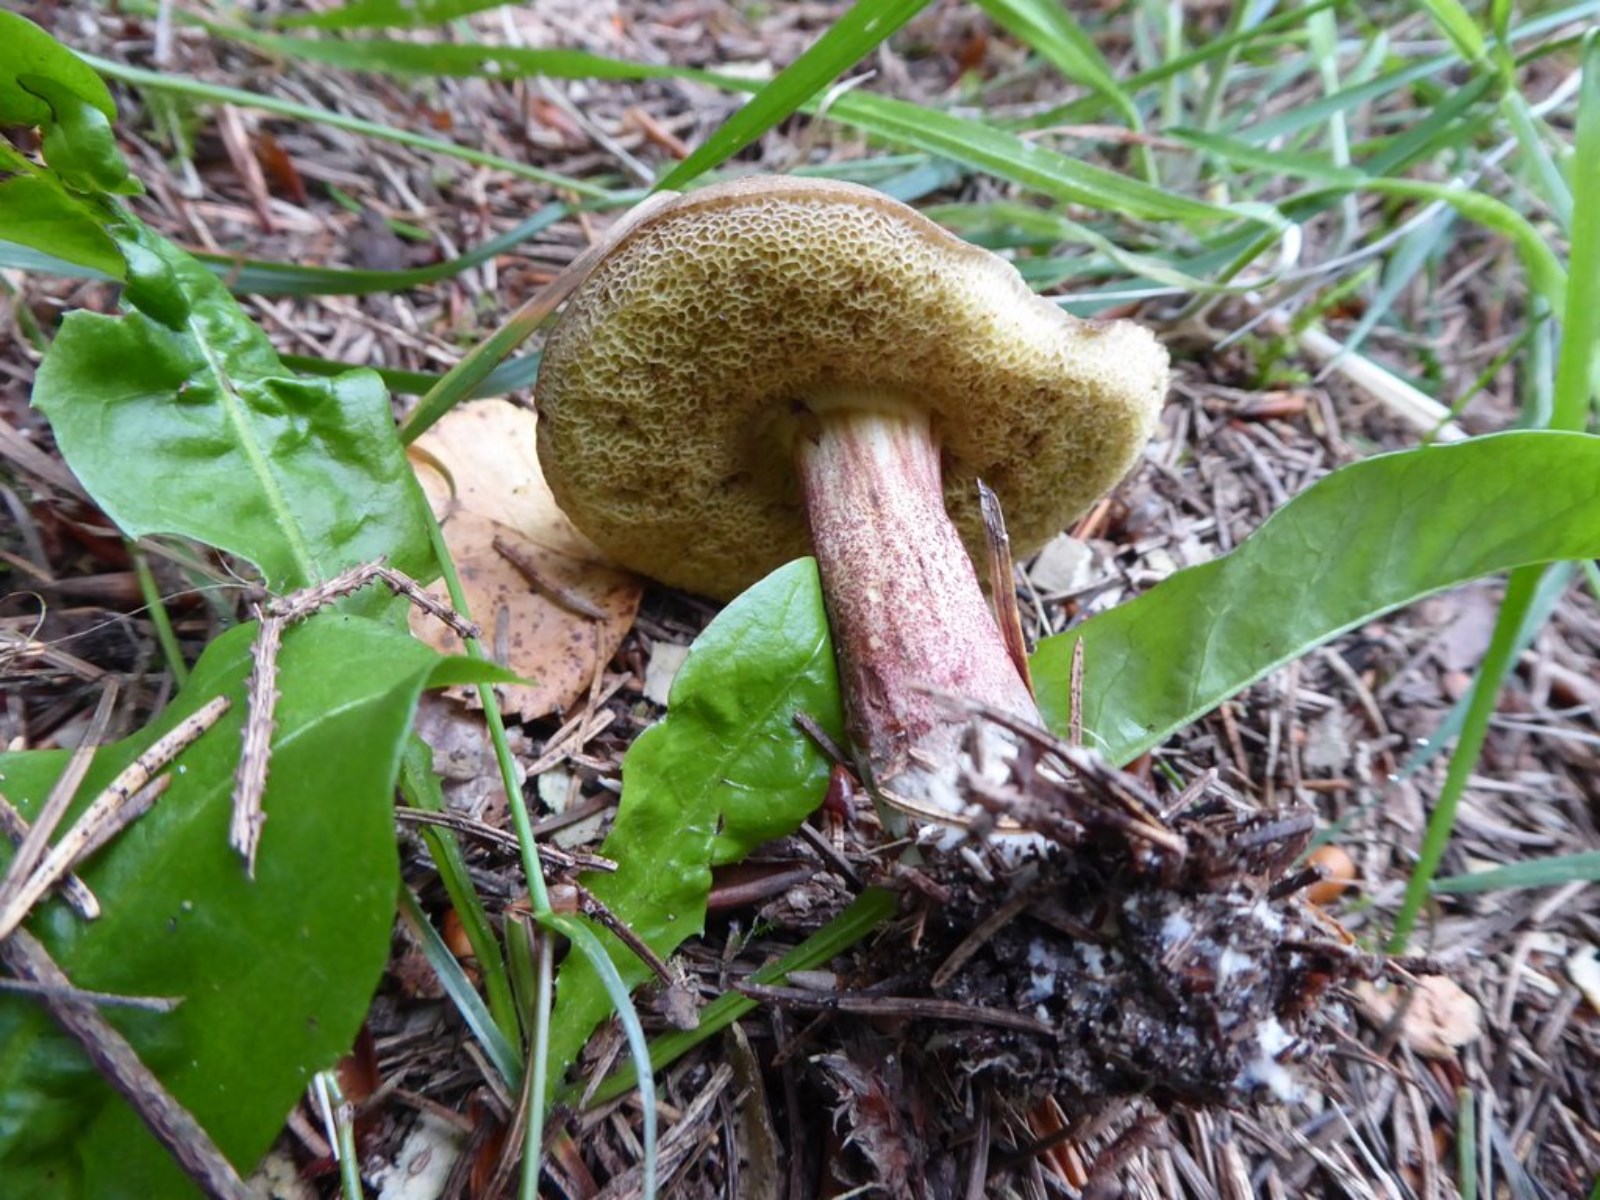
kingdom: Fungi
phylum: Basidiomycota
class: Agaricomycetes
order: Boletales
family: Boletaceae
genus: Xerocomellus
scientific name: Xerocomellus chrysenteron
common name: rødsprukken rørhat
